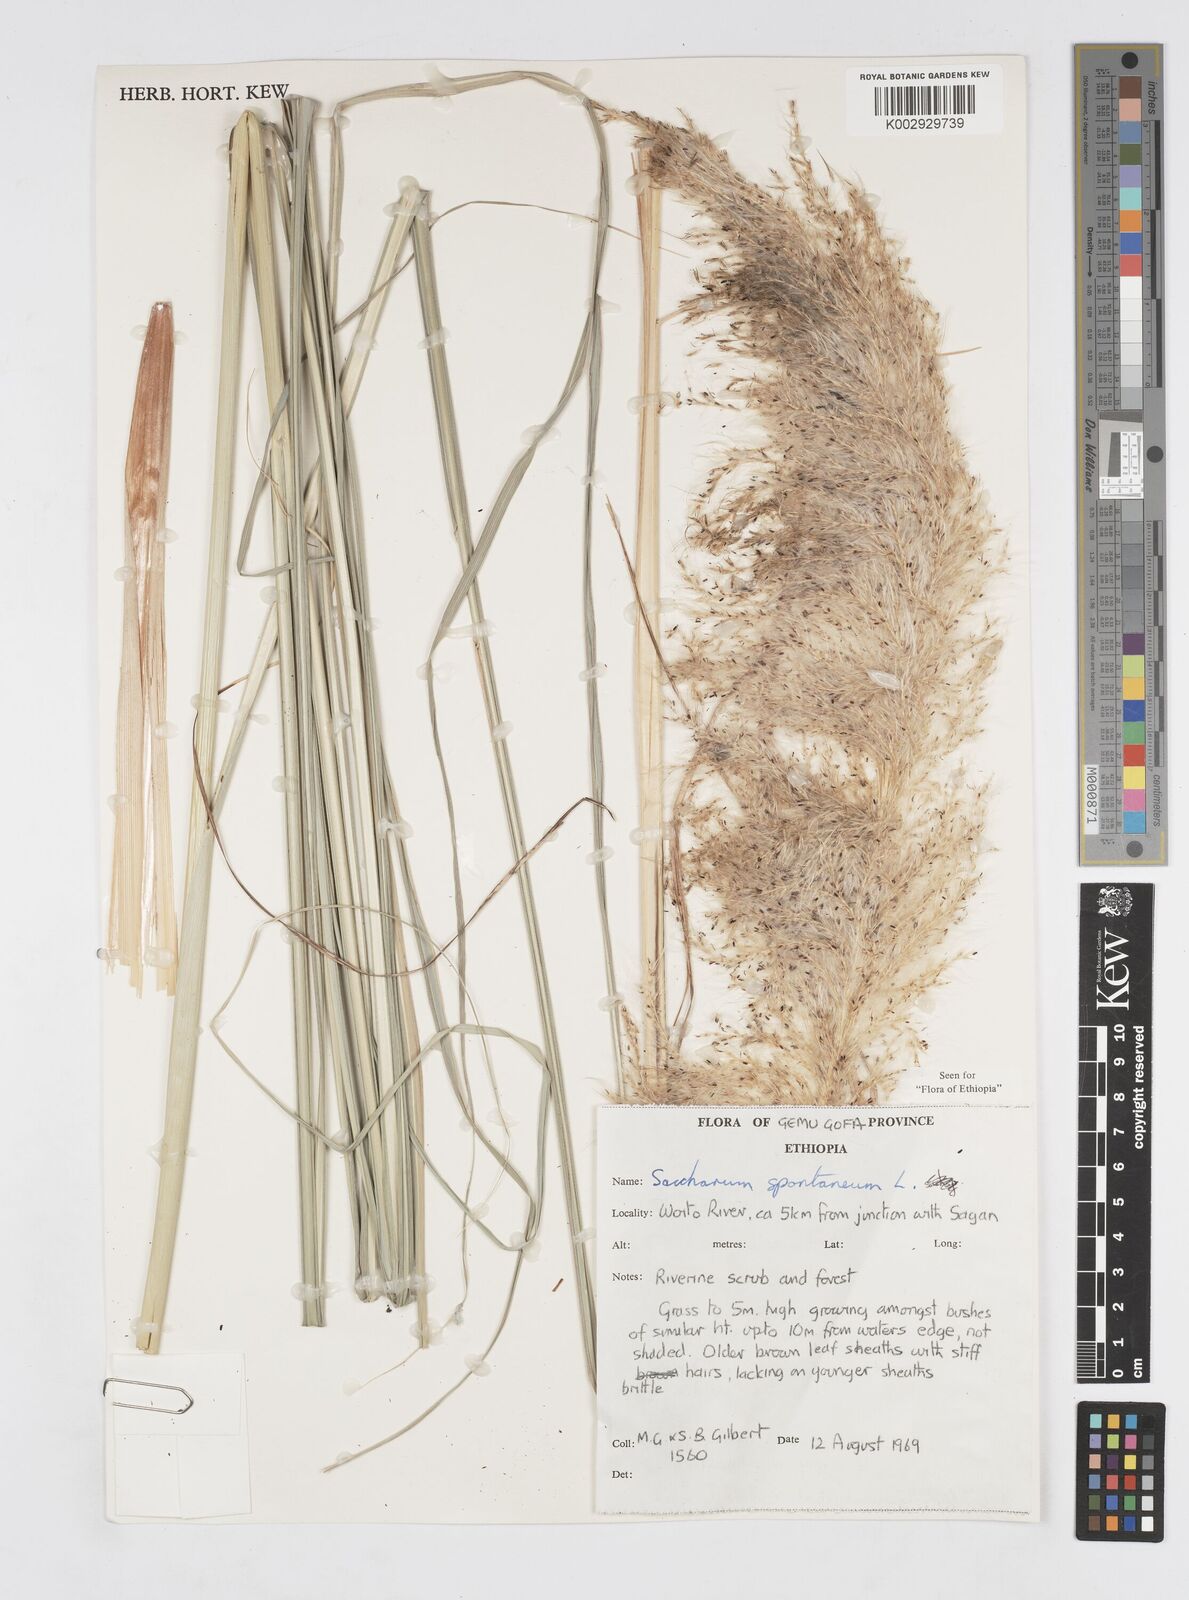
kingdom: Plantae
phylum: Tracheophyta
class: Liliopsida
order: Poales
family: Poaceae
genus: Saccharum
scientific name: Saccharum spontaneum
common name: Wild sugarcane
